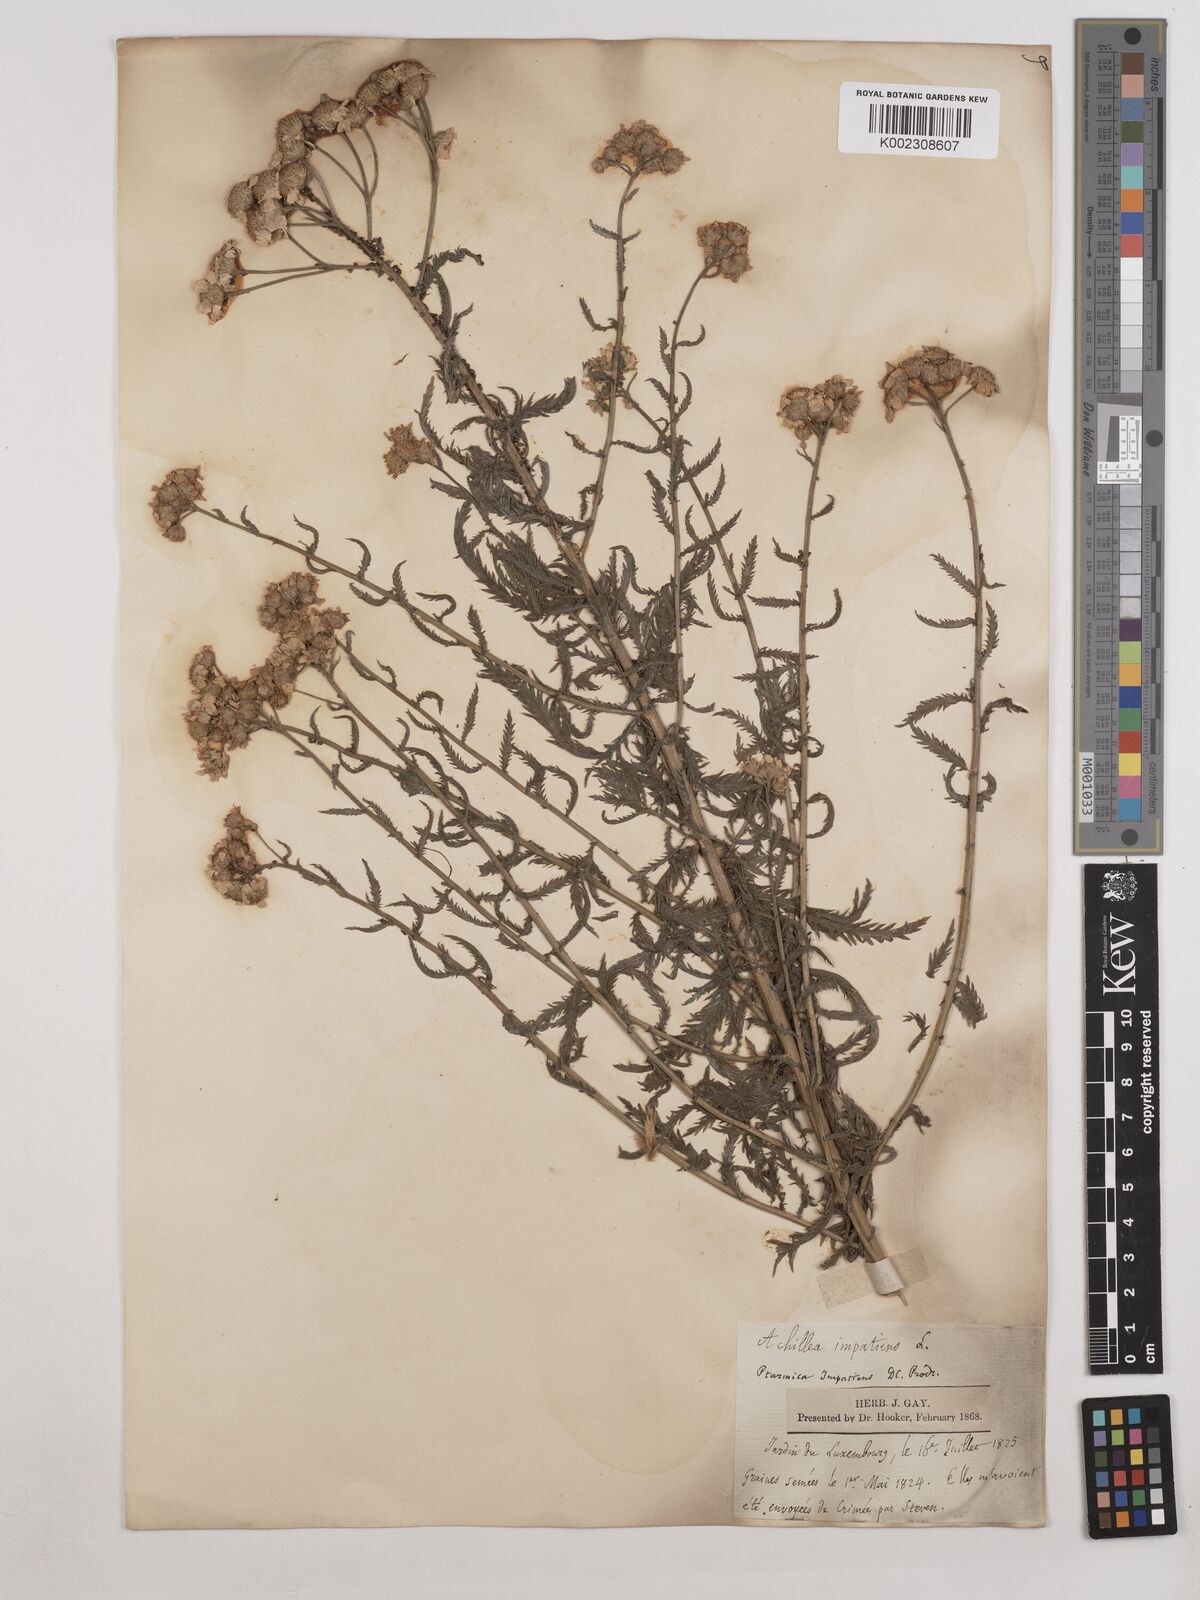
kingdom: Plantae
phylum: Tracheophyta
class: Magnoliopsida
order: Asterales
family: Asteraceae
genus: Achillea
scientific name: Achillea impatiens
